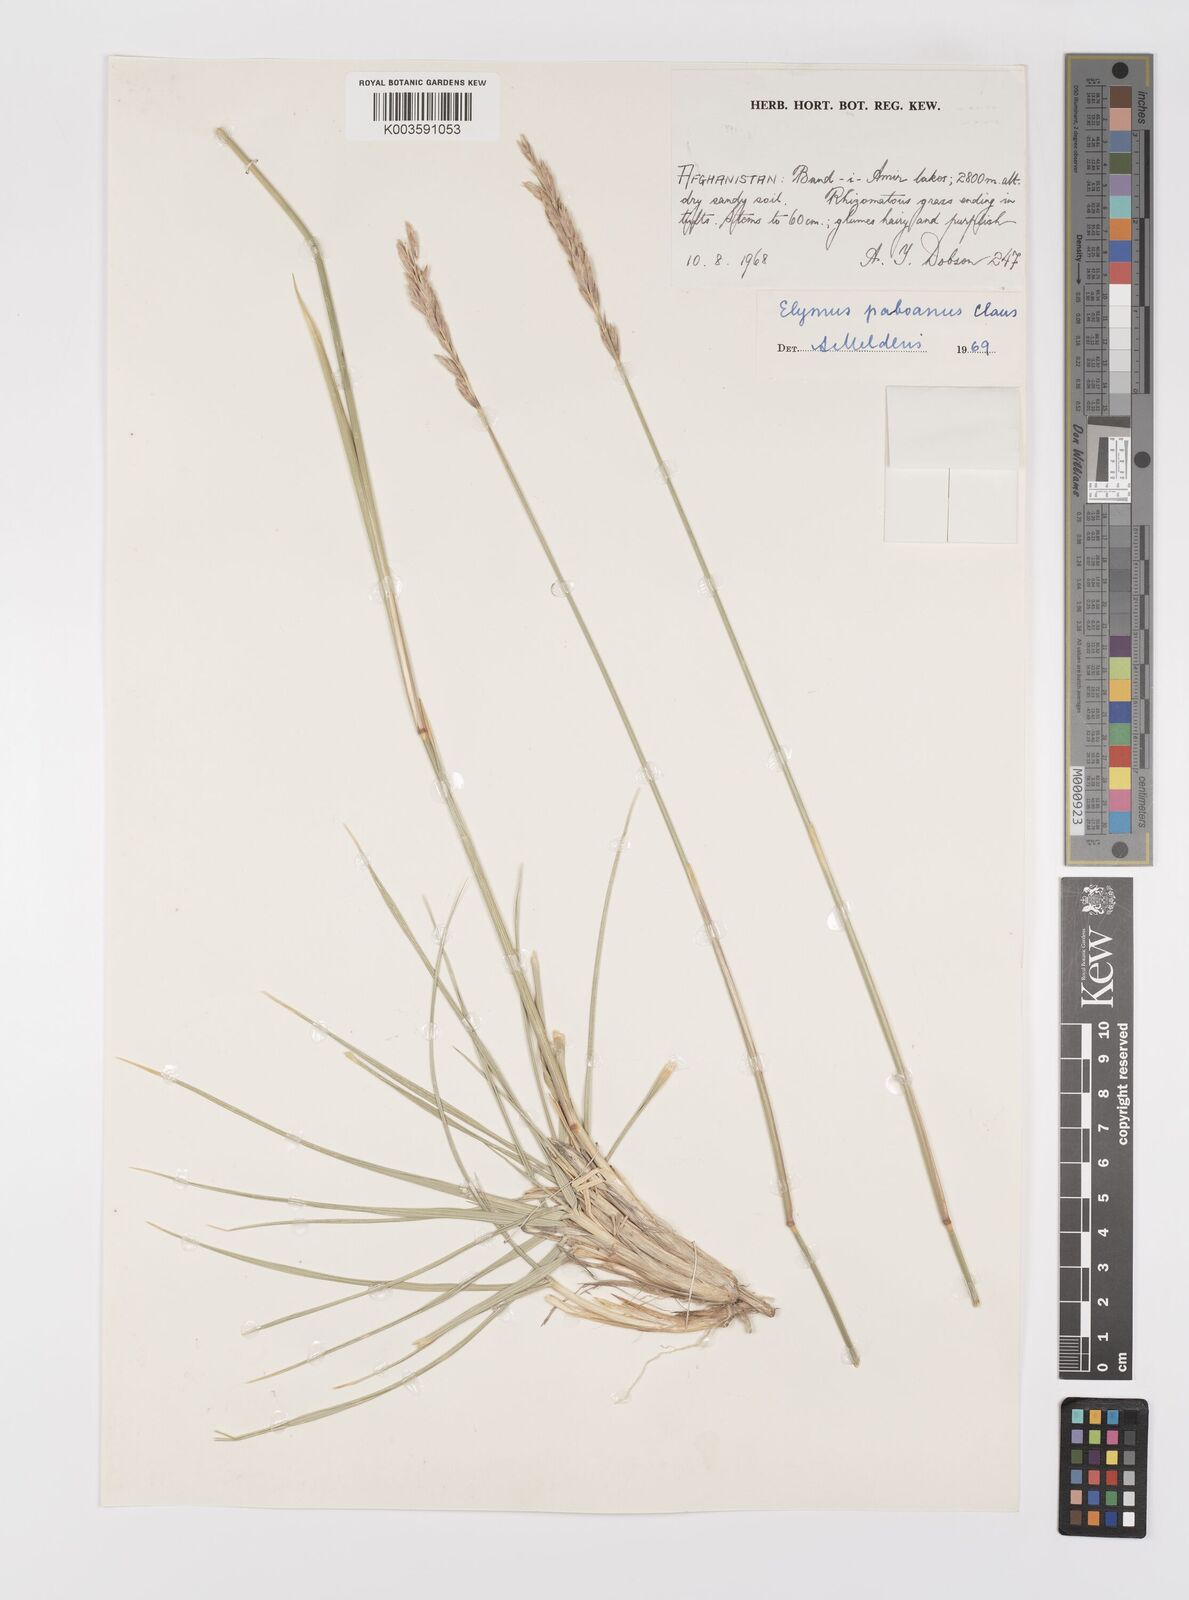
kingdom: Plantae
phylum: Tracheophyta
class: Liliopsida
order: Poales
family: Poaceae
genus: Leymus
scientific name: Leymus paboanus
